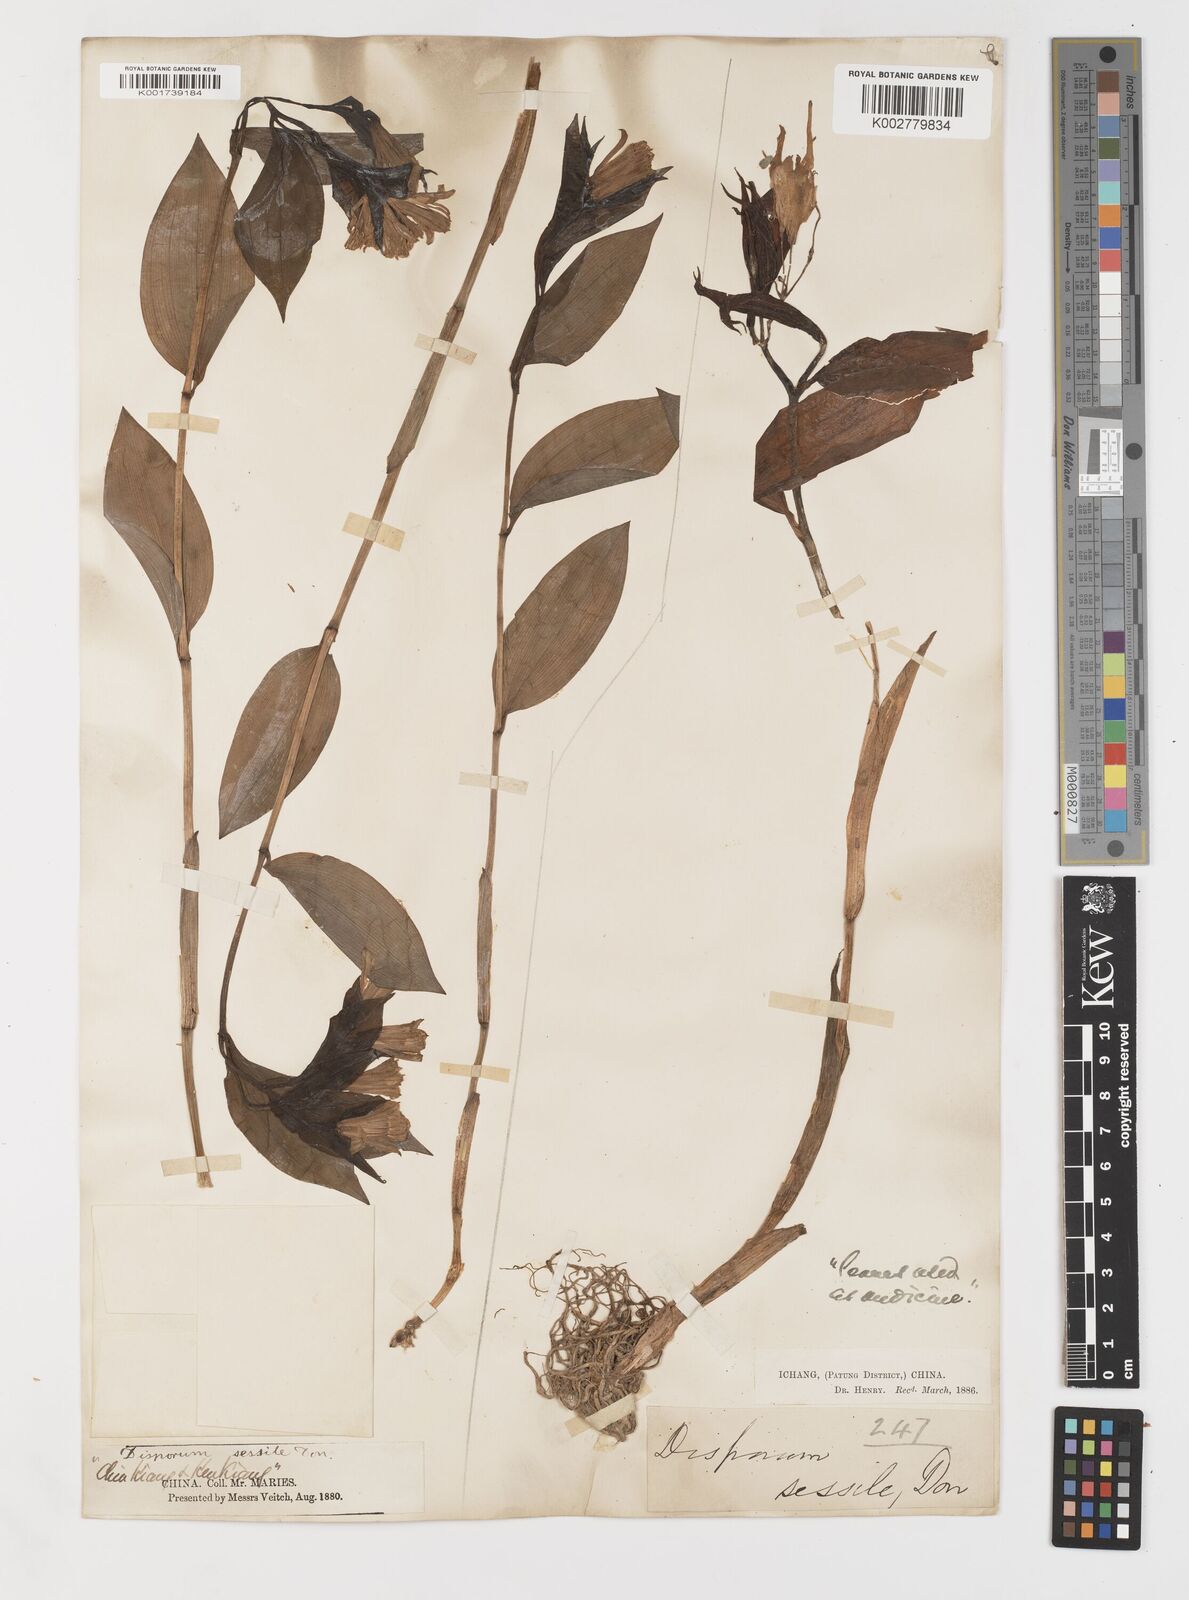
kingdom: Plantae
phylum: Tracheophyta
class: Liliopsida
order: Liliales
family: Colchicaceae
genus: Disporum
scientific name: Disporum sessile
